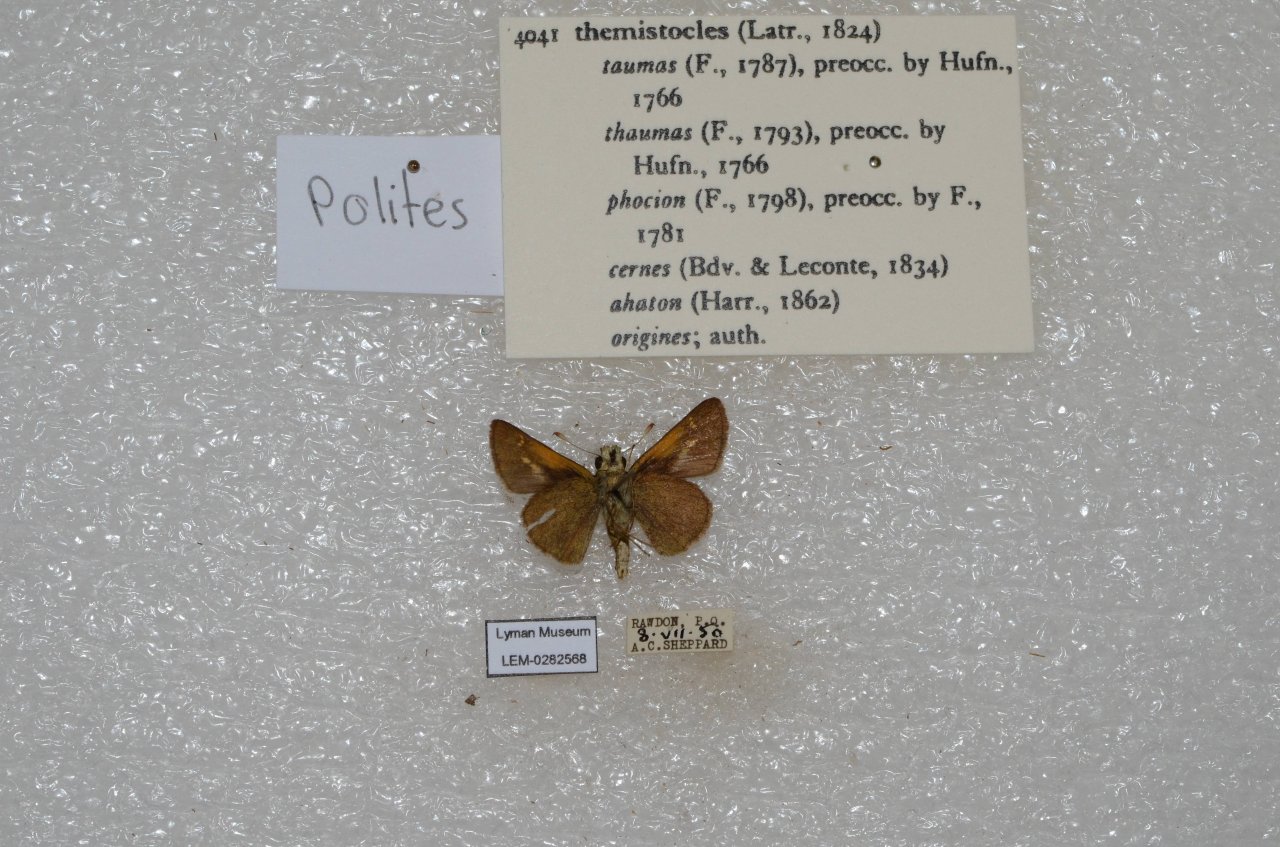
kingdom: Animalia
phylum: Arthropoda
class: Insecta
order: Lepidoptera
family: Hesperiidae
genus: Polites
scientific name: Polites themistocles
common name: Tawny-edged Skipper
